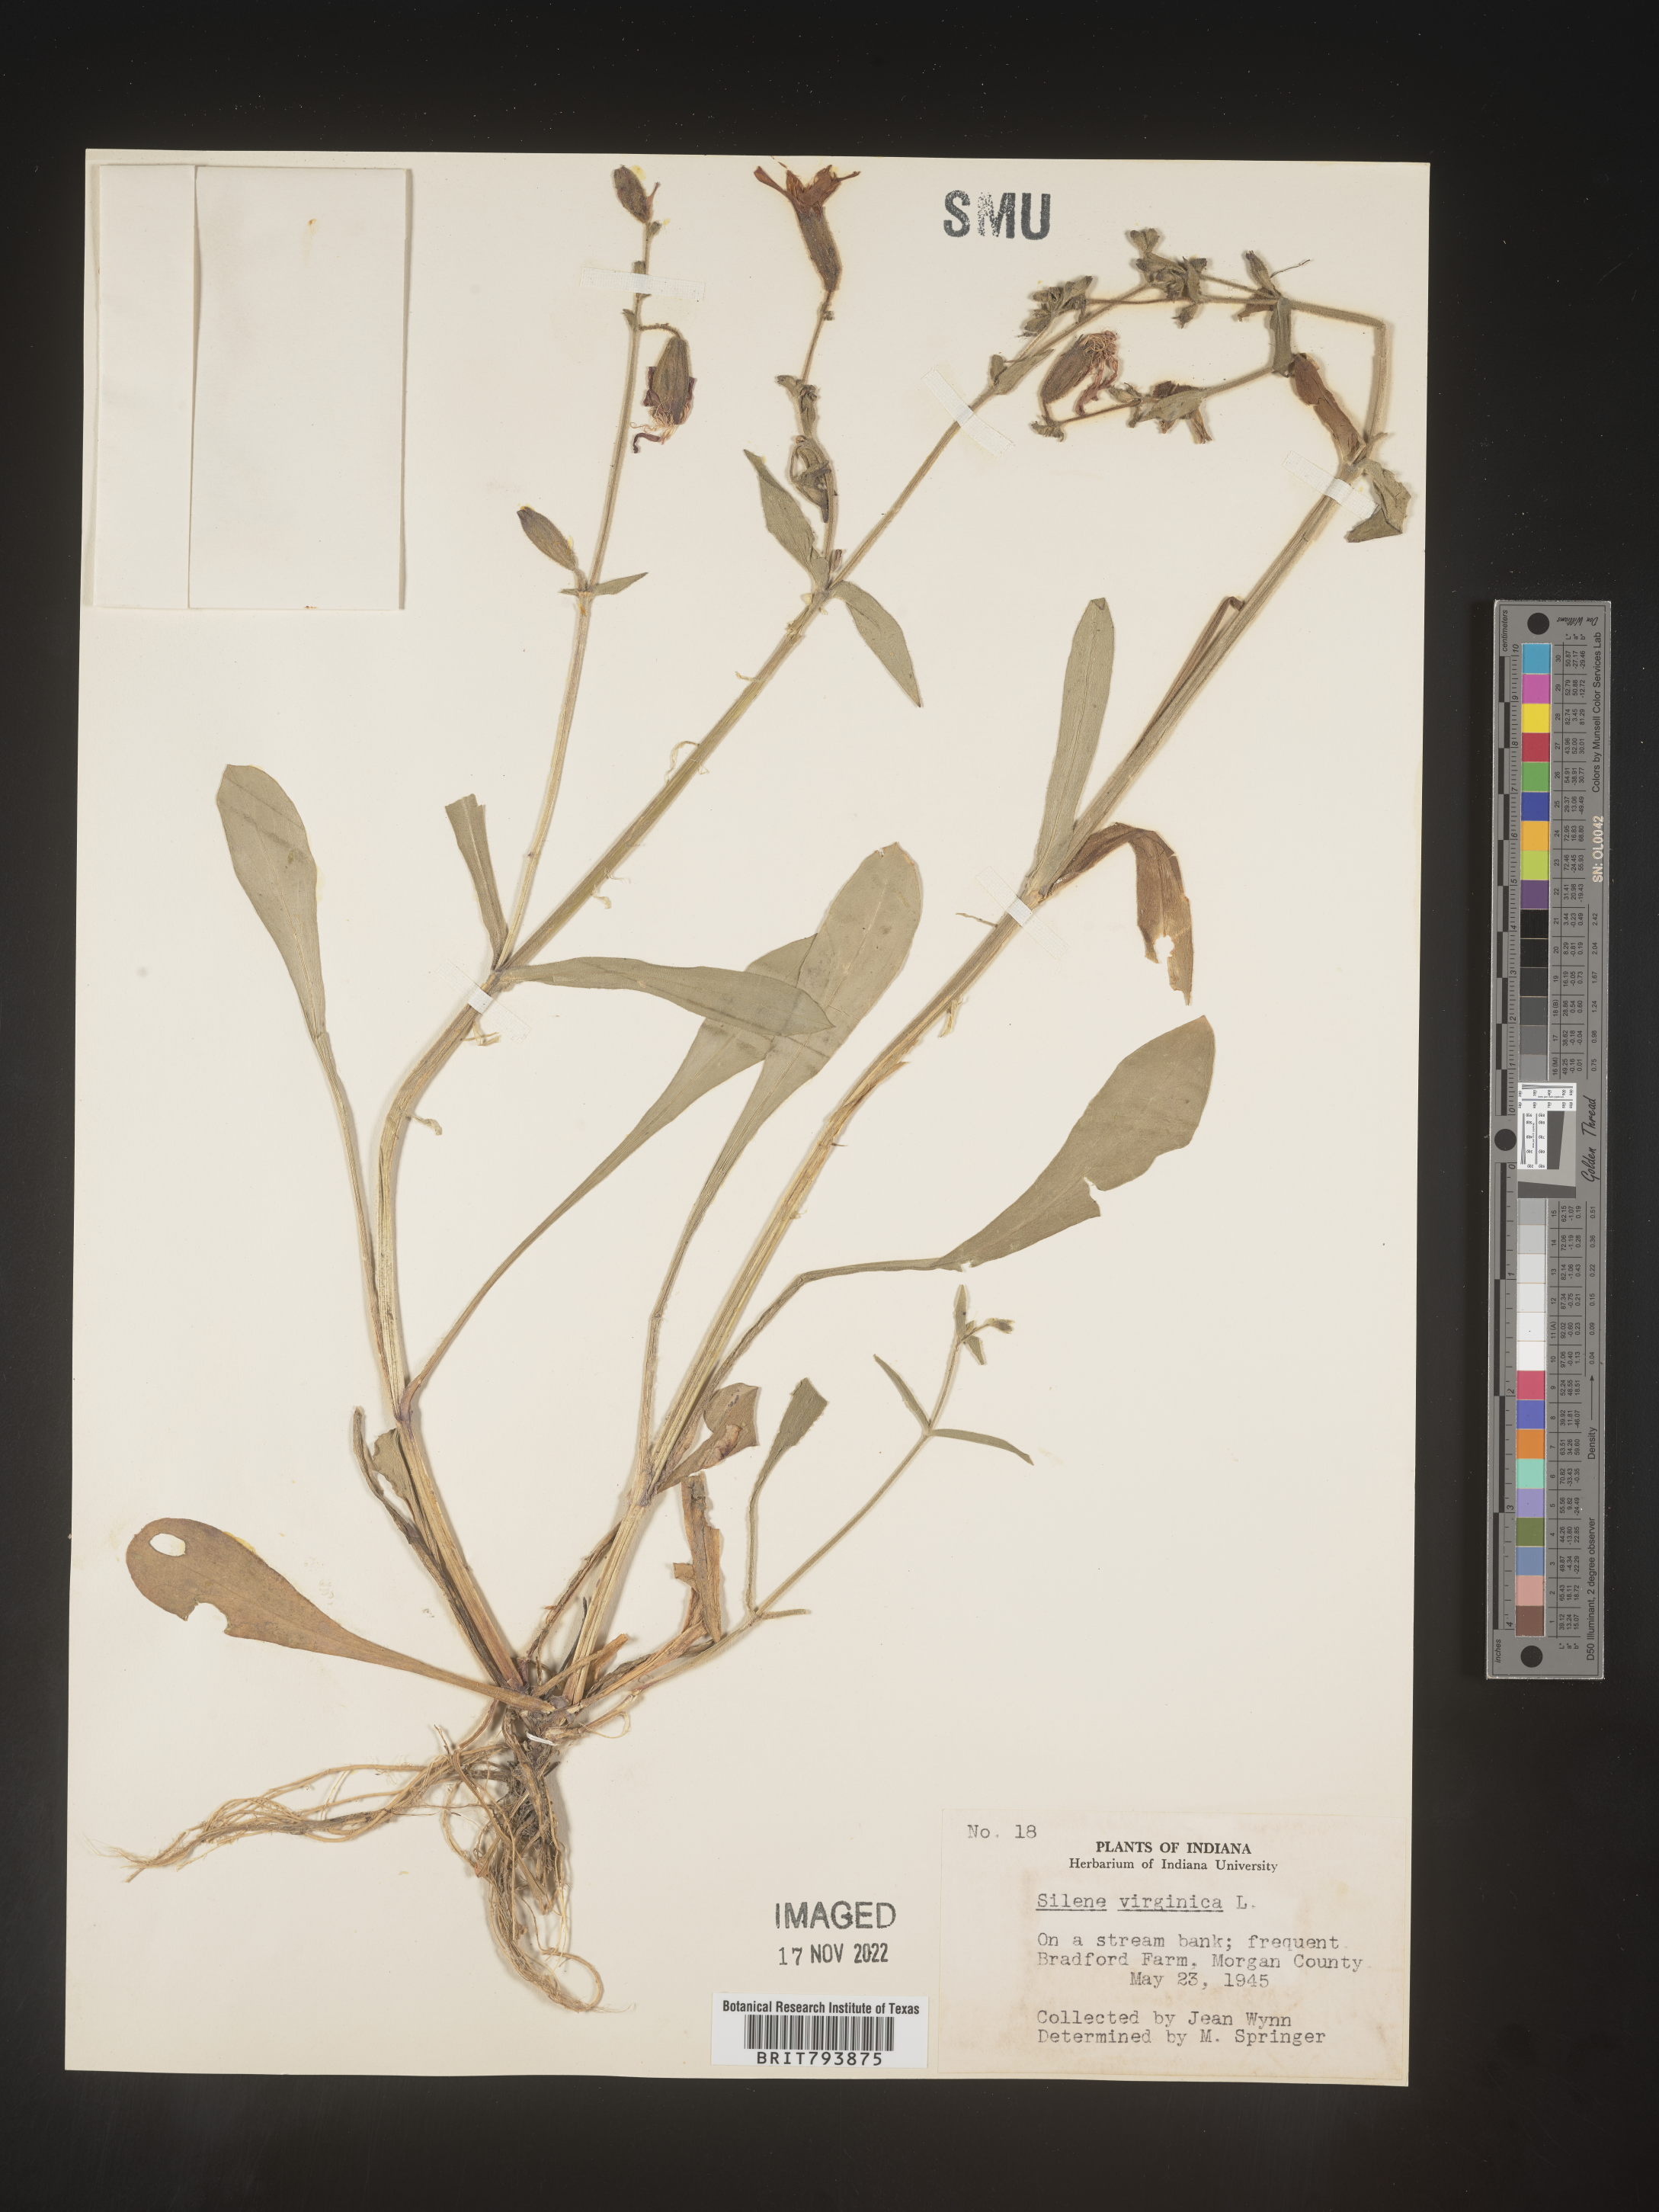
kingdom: Plantae
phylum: Tracheophyta
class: Magnoliopsida
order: Caryophyllales
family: Caryophyllaceae
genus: Silene
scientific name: Silene virginica
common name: Fire-pink
